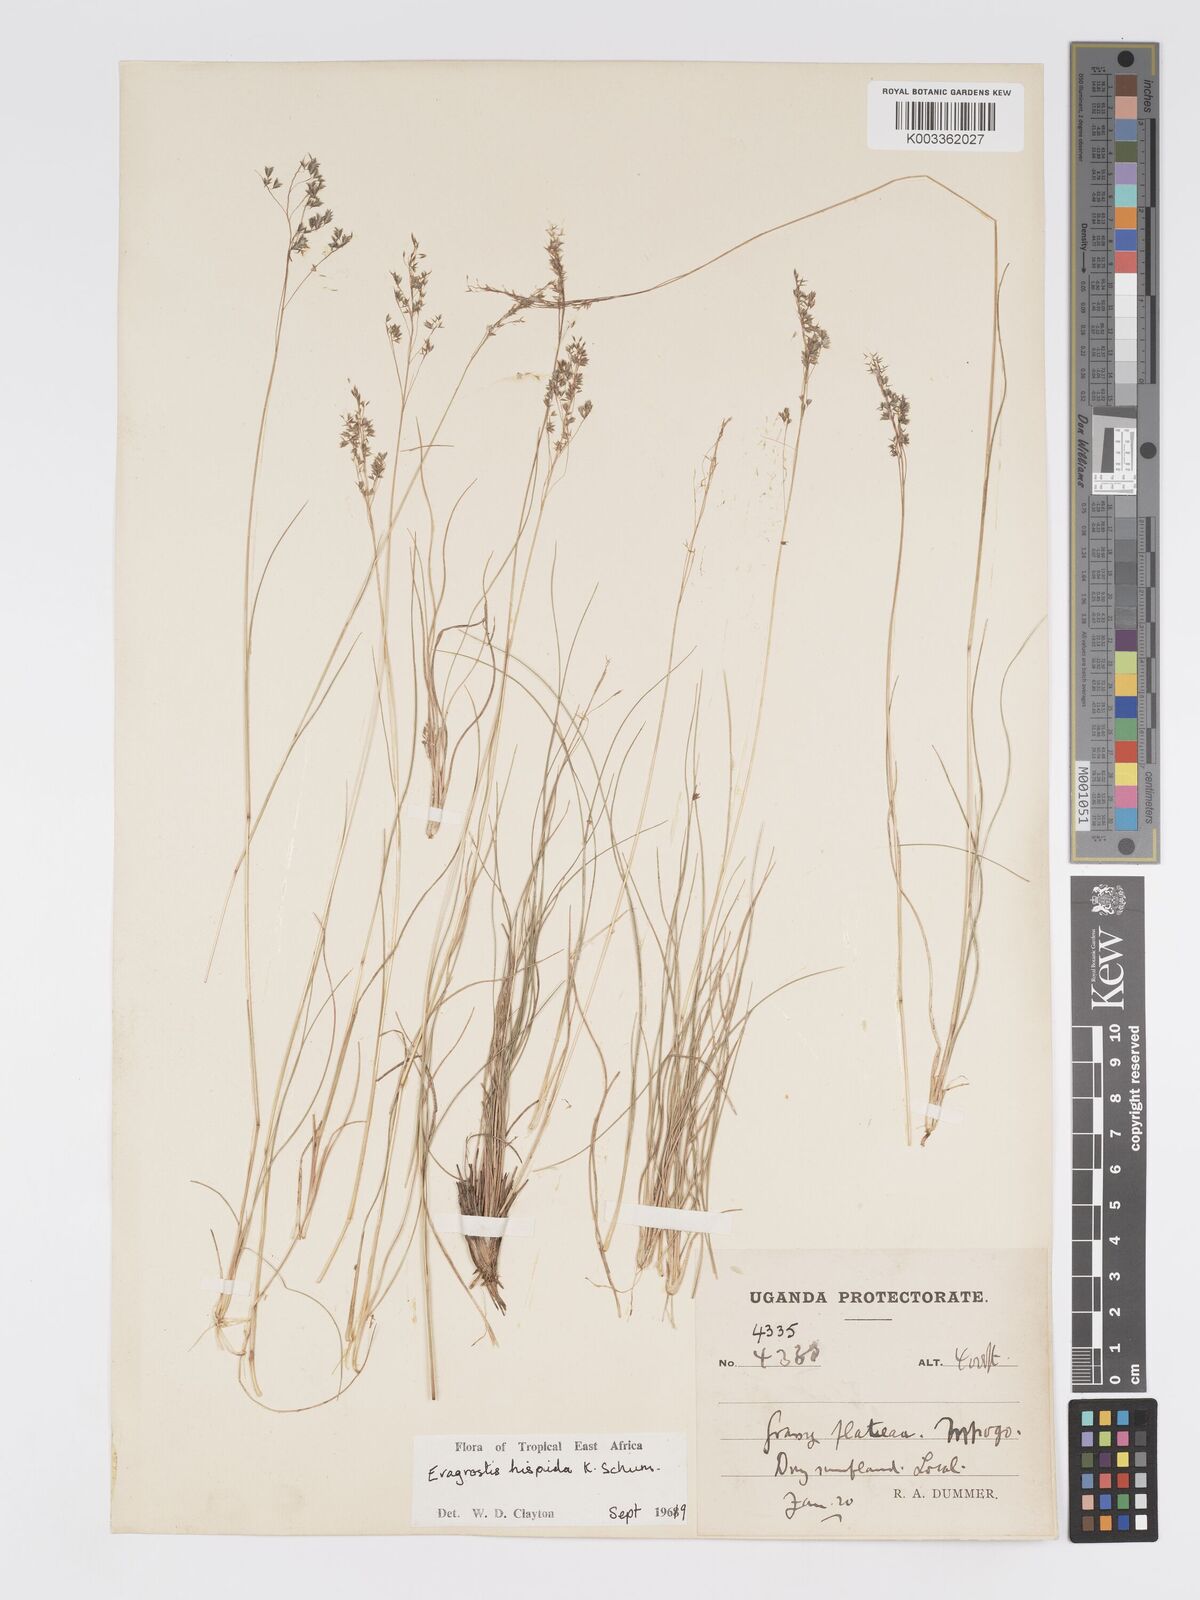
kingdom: Plantae
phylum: Tracheophyta
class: Liliopsida
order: Poales
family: Poaceae
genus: Eragrostis
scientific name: Eragrostis hispida
